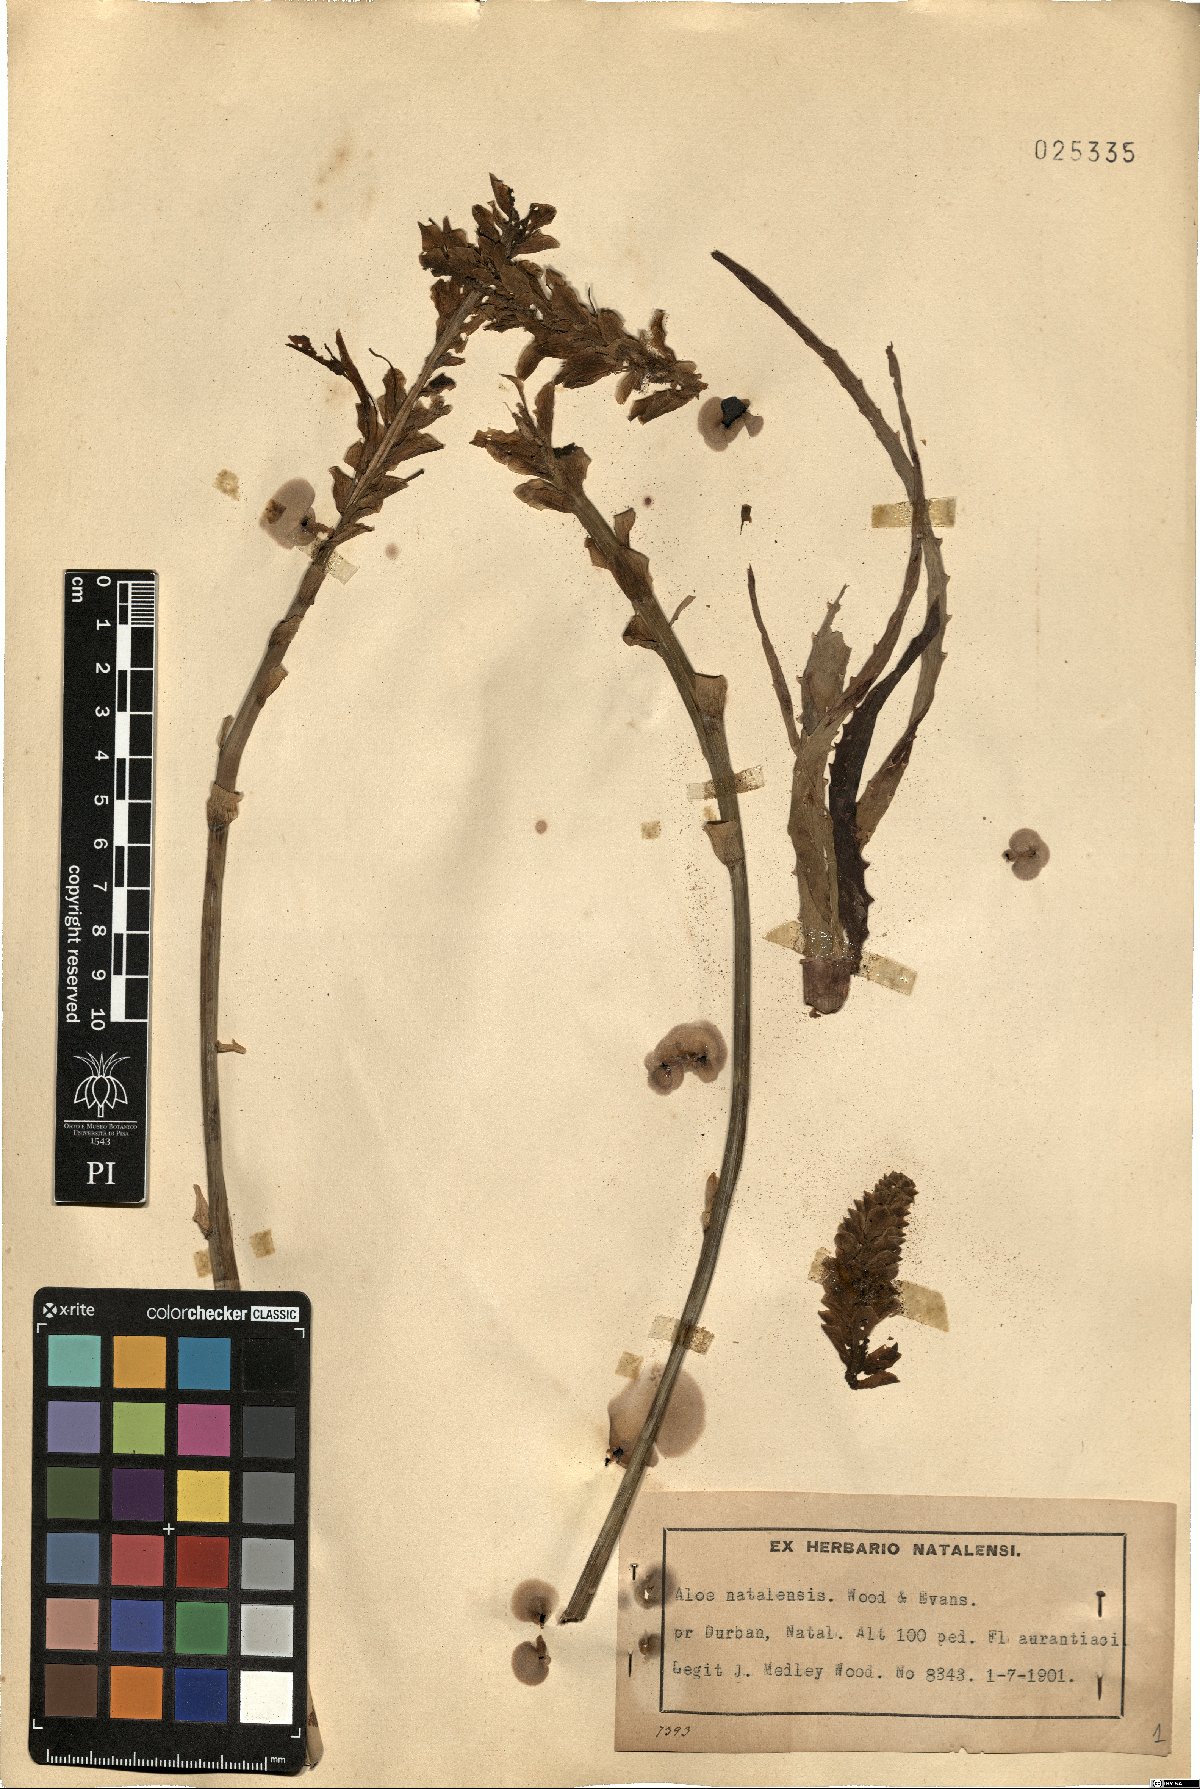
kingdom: Plantae
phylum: Tracheophyta
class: Liliopsida
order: Asparagales
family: Asphodelaceae
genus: Aloe
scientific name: Aloe arborescens
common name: Candelabra aloe
